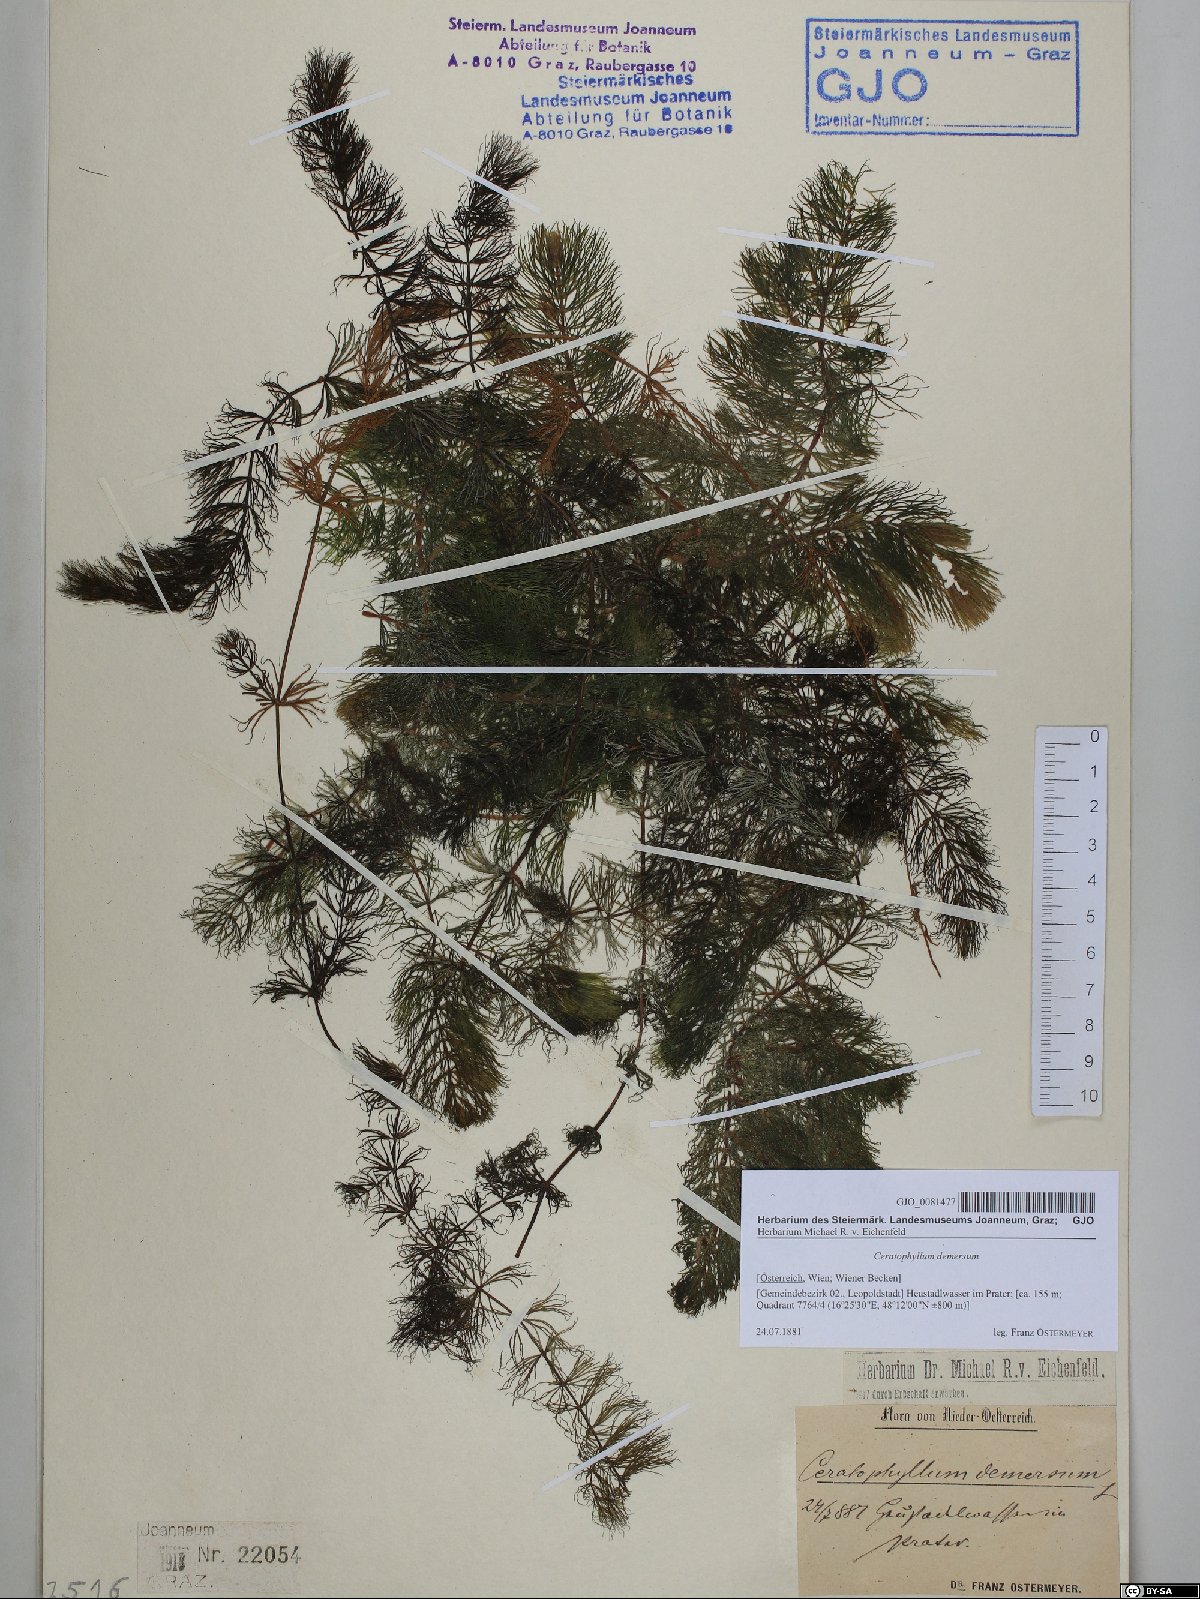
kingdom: Plantae
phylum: Tracheophyta
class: Magnoliopsida
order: Ceratophyllales
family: Ceratophyllaceae
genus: Ceratophyllum
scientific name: Ceratophyllum demersum
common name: Rigid hornwort
